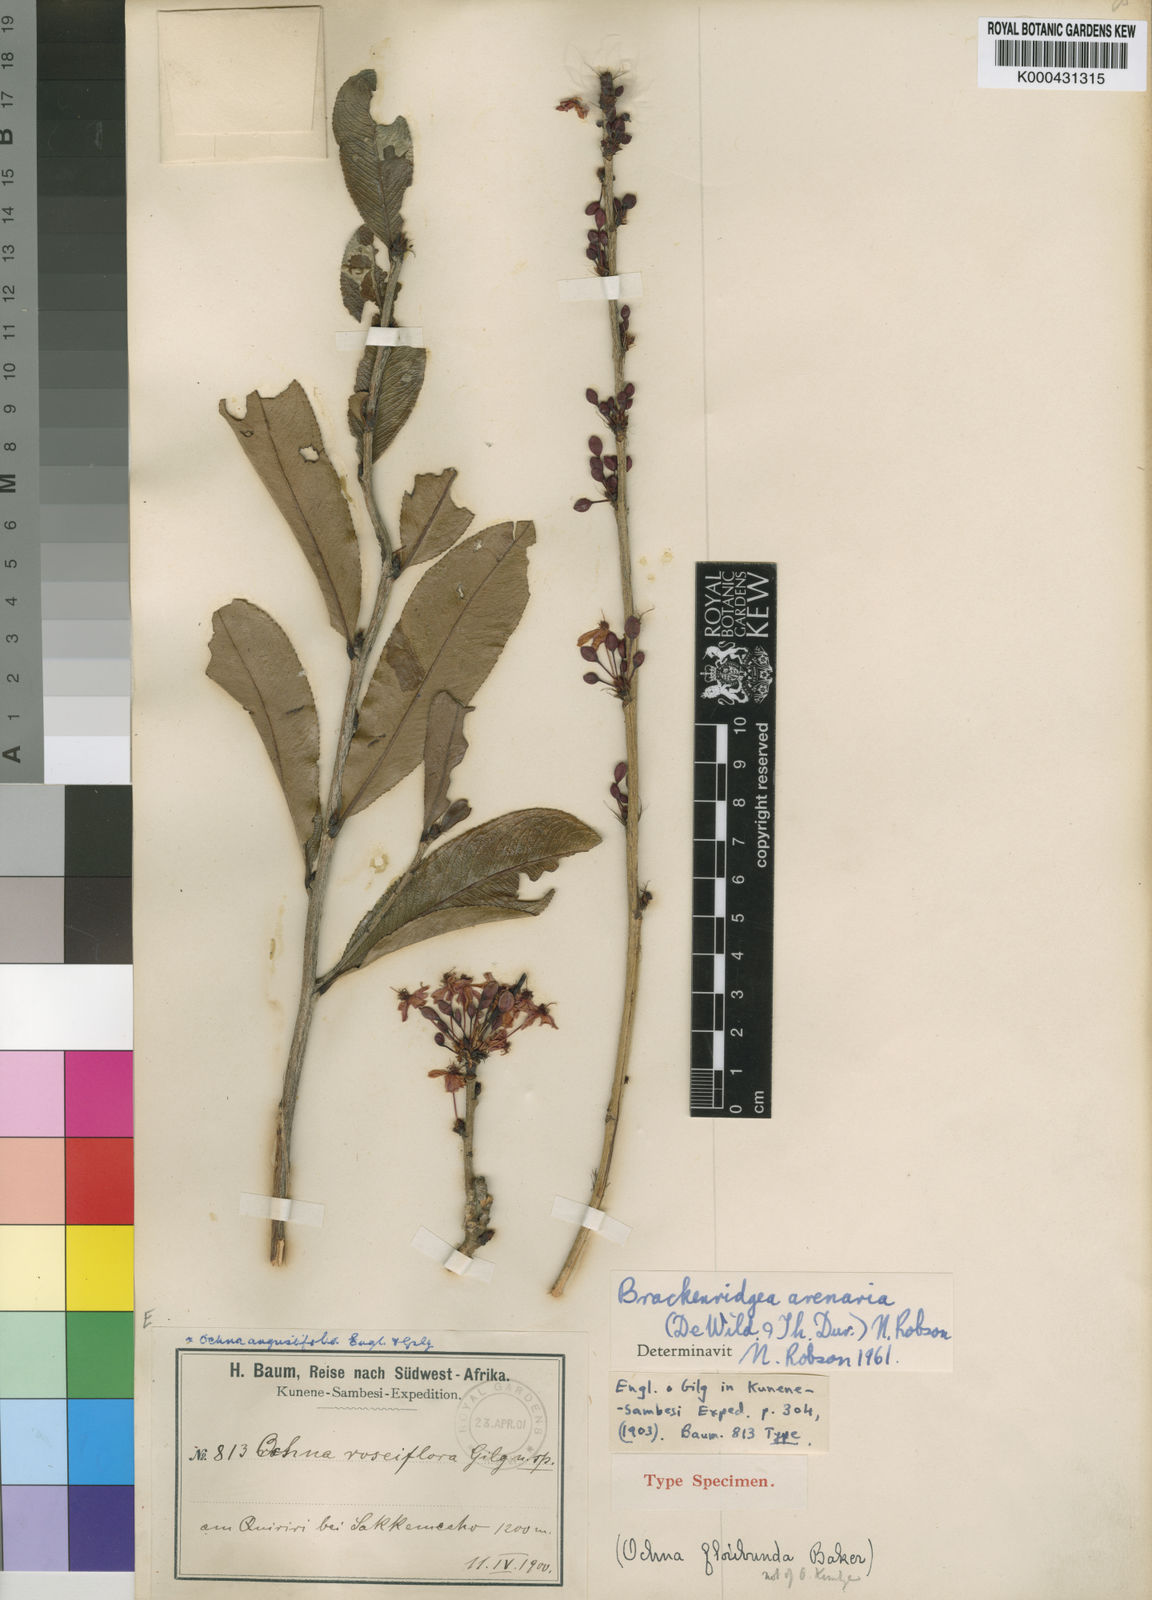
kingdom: Plantae
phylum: Tracheophyta
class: Magnoliopsida
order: Malpighiales
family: Ochnaceae
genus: Ochna
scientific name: Ochna arenaria
